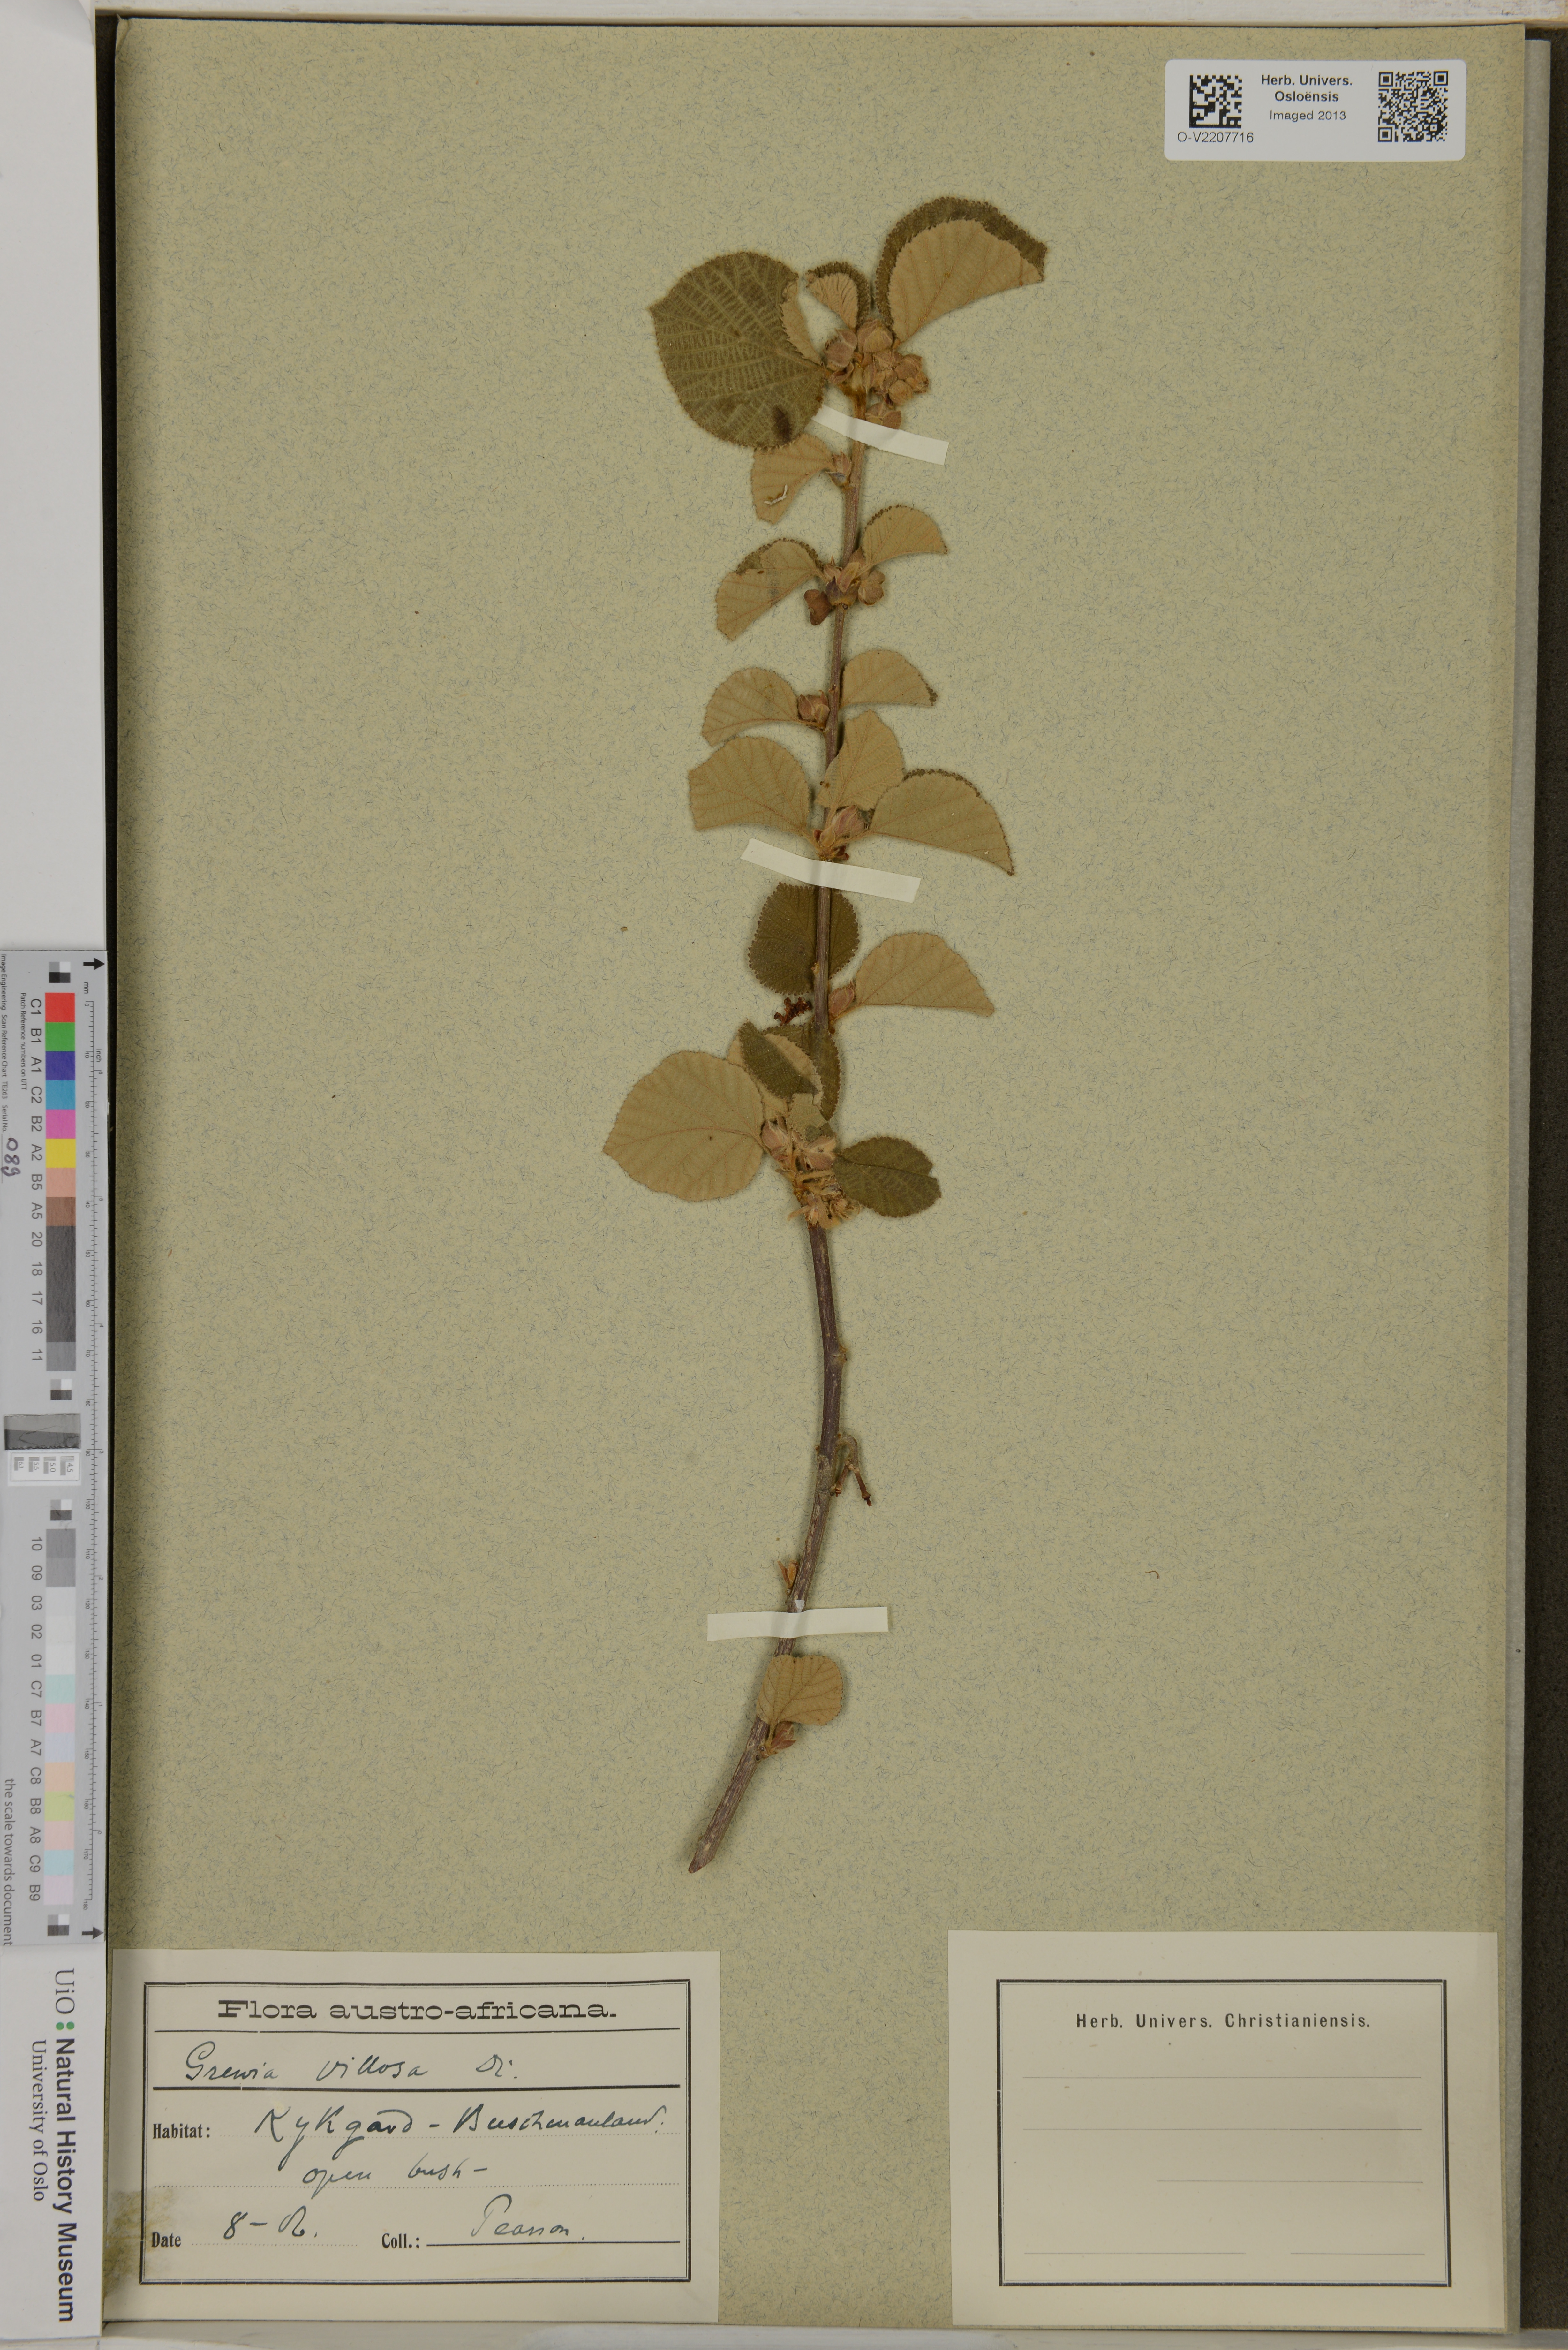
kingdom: Plantae
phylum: Tracheophyta
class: Magnoliopsida
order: Malvales
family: Malvaceae
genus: Grewia
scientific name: Grewia villosa
